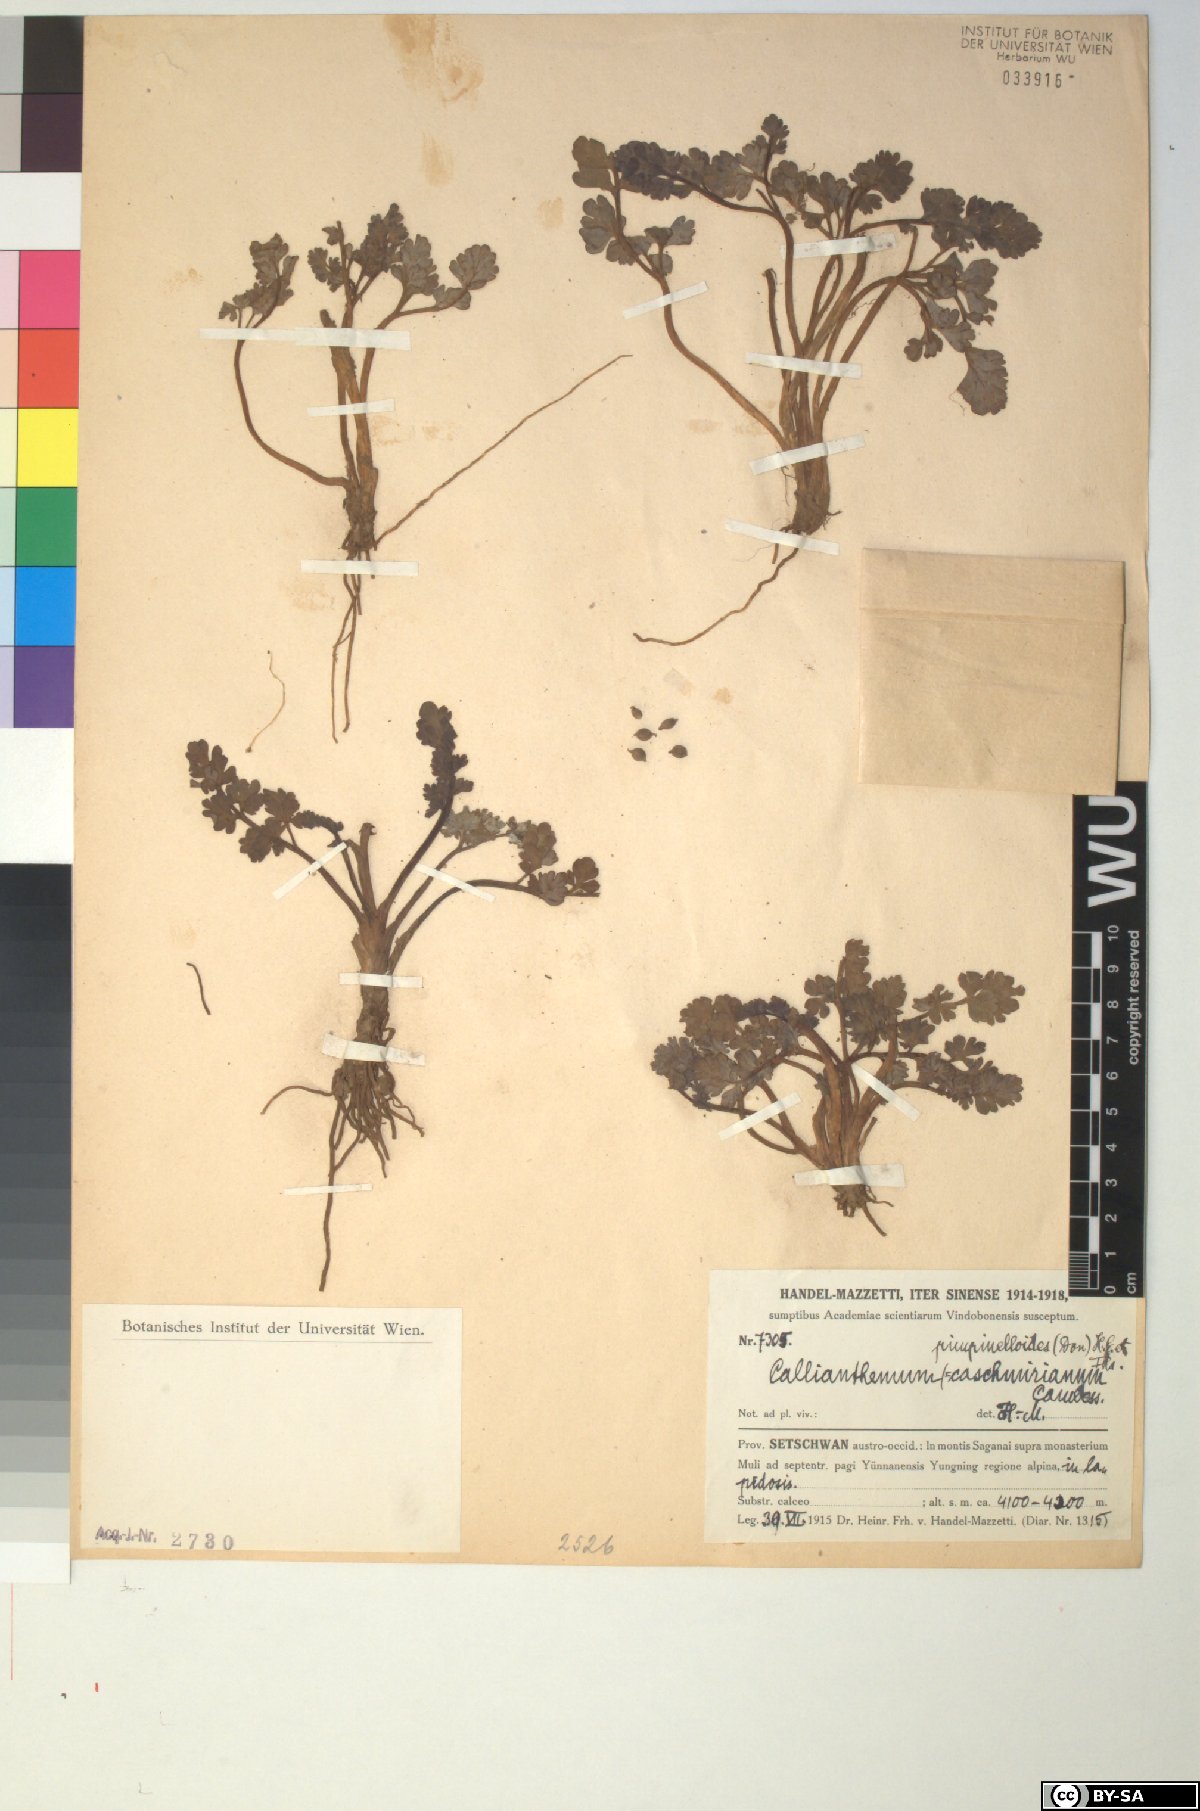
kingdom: Plantae
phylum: Tracheophyta
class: Magnoliopsida
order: Ranunculales
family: Ranunculaceae
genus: Callianthemum
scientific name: Callianthemum pimpinelloides
